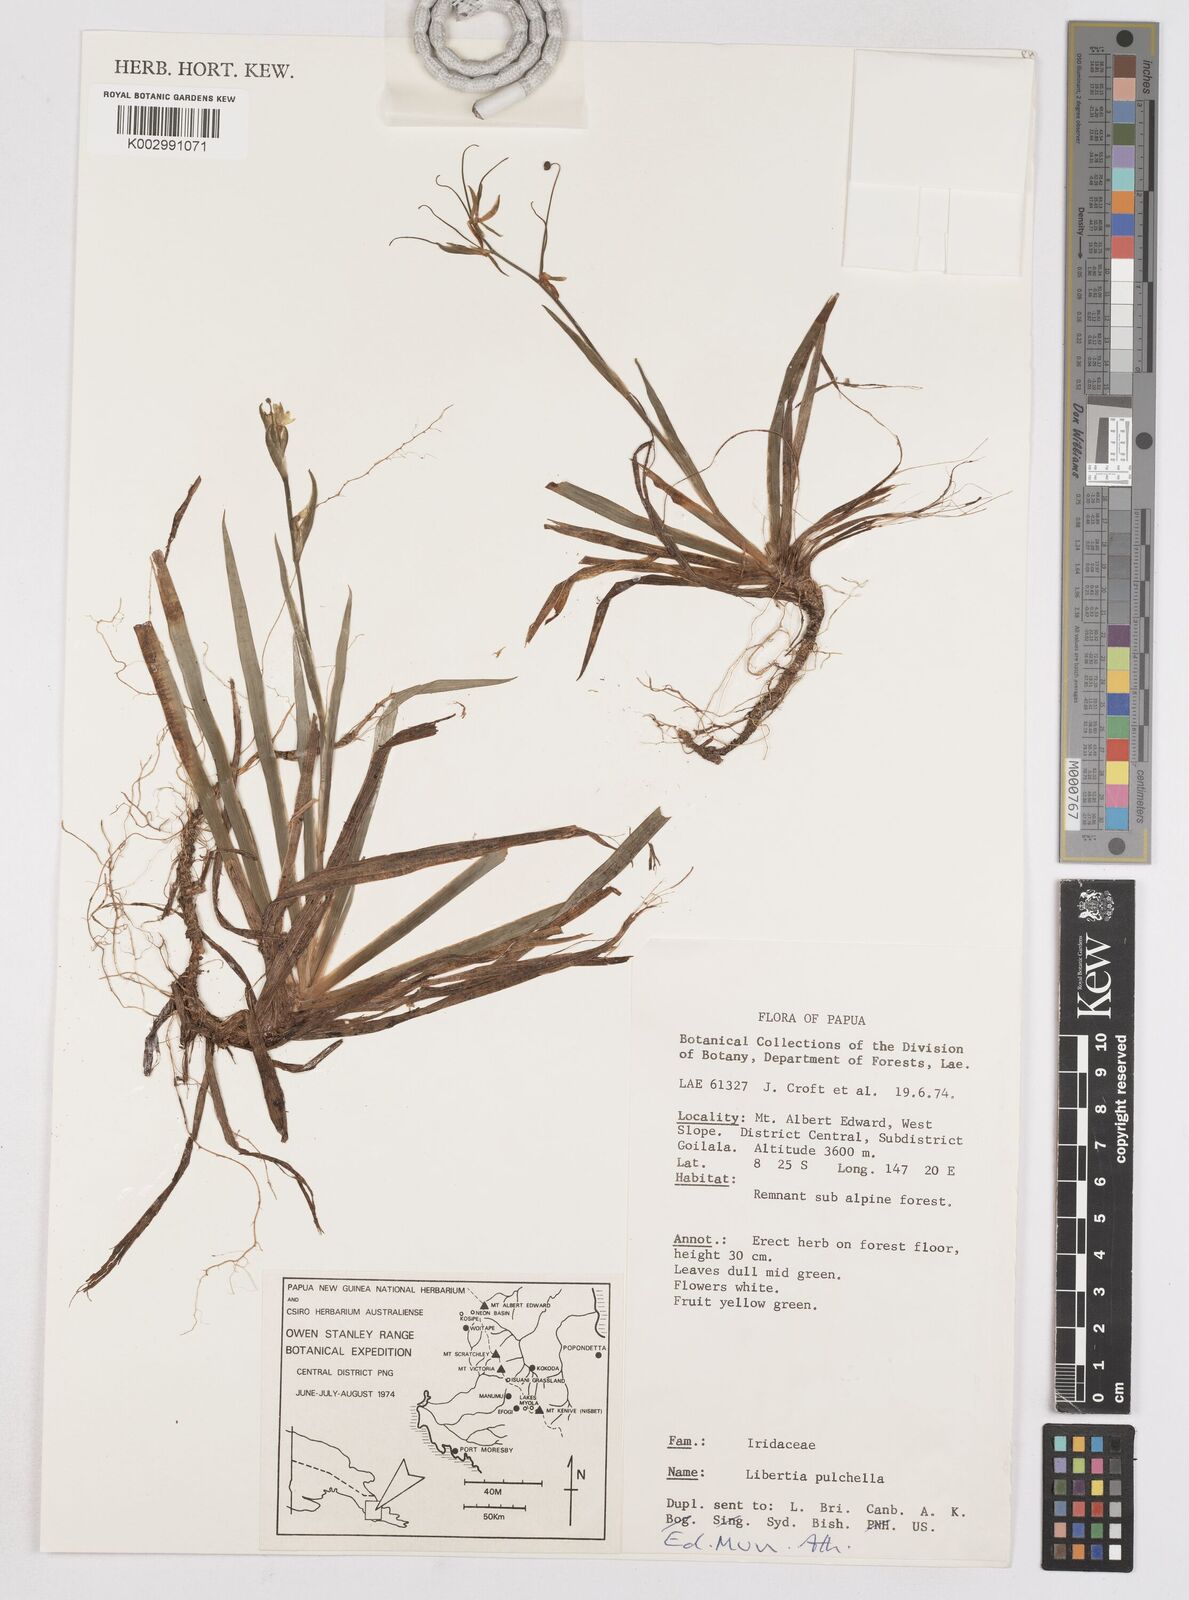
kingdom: Plantae
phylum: Tracheophyta
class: Liliopsida
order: Asparagales
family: Iridaceae
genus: Libertia
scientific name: Libertia pulchella
